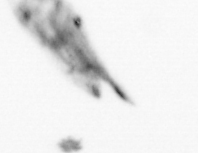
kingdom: Animalia
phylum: Arthropoda
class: Copepoda
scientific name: Copepoda
